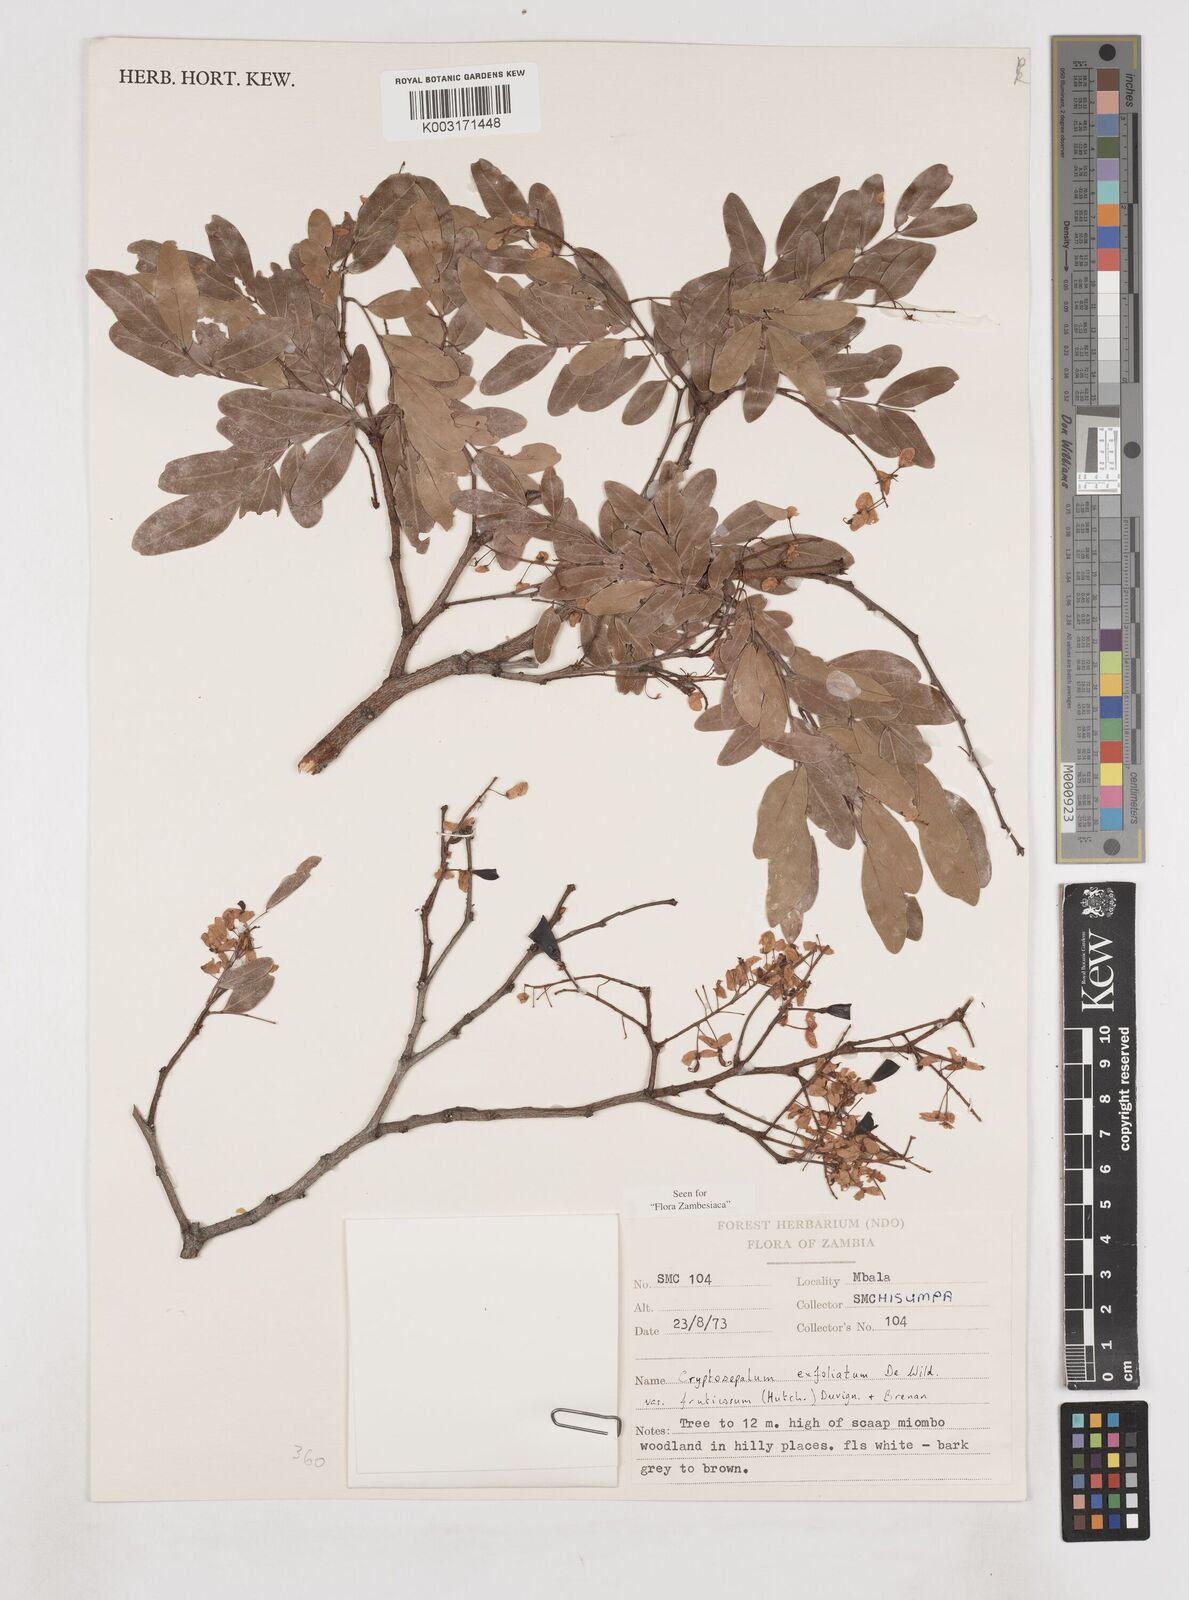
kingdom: Plantae
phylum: Tracheophyta
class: Magnoliopsida
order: Fabales
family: Fabaceae
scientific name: Fabaceae
